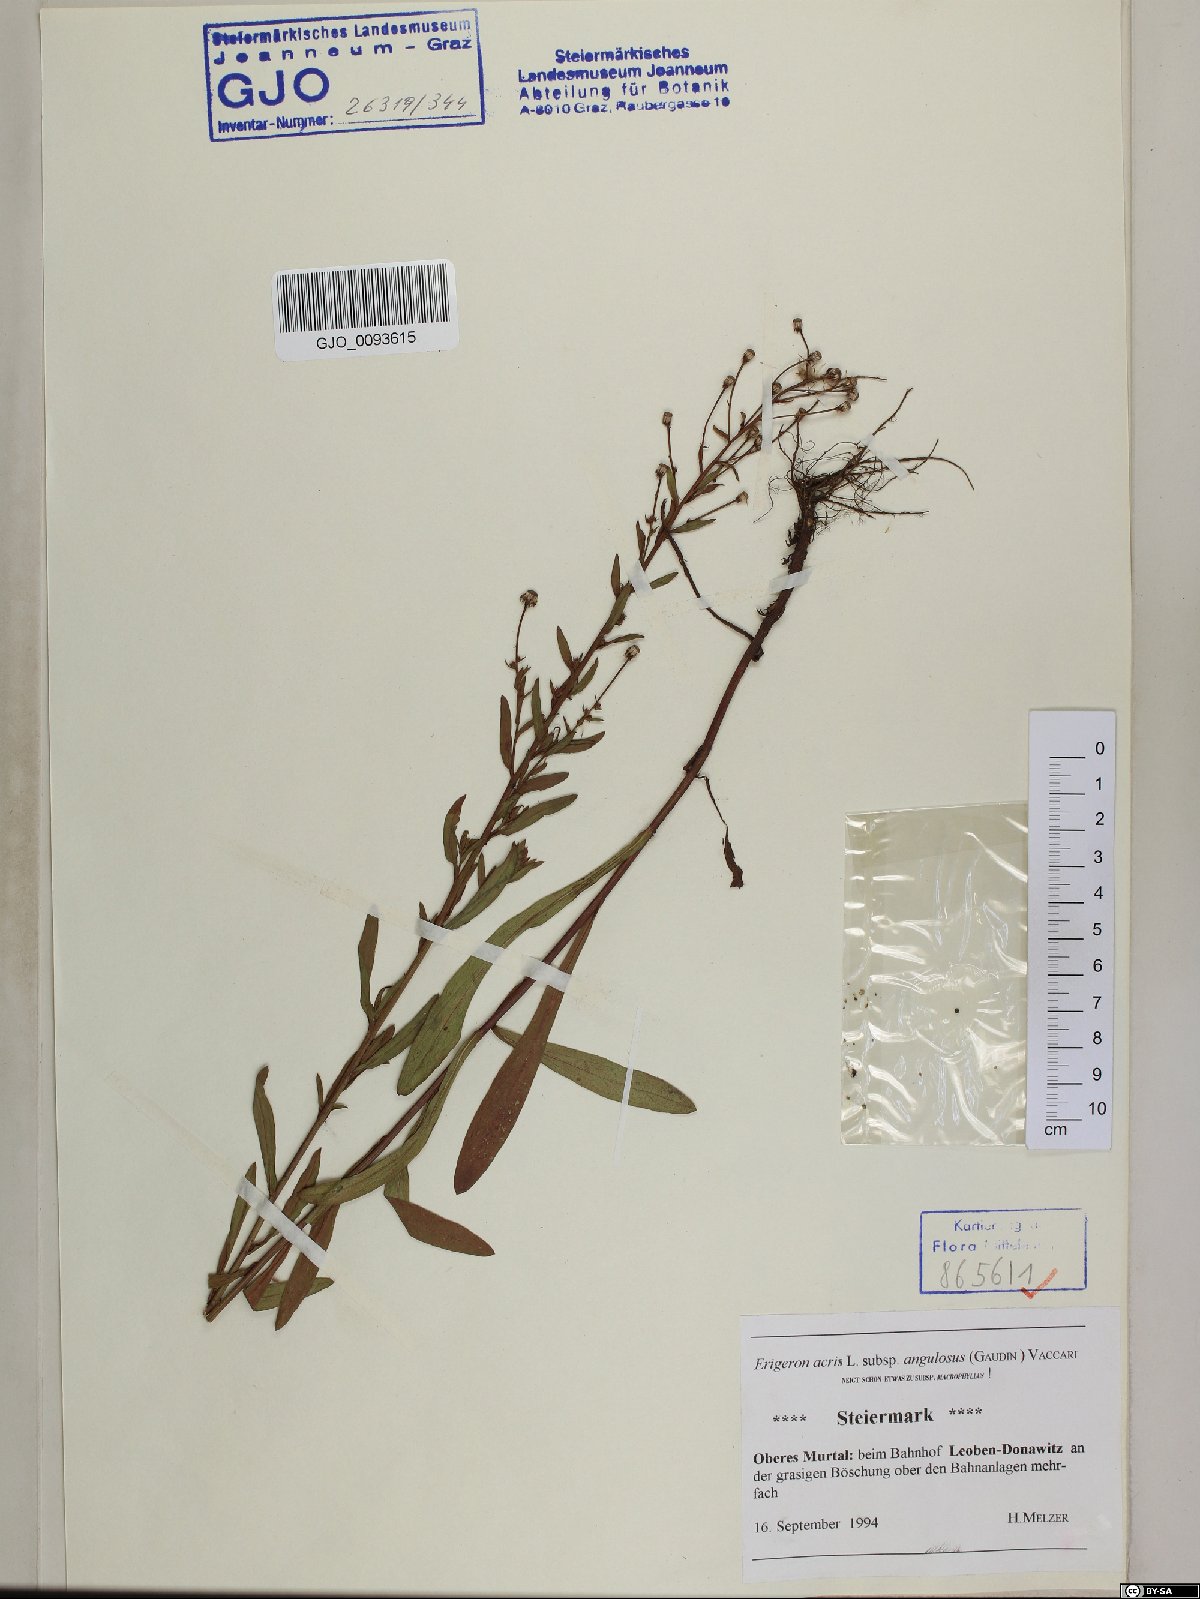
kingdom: Plantae
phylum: Tracheophyta
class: Magnoliopsida
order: Asterales
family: Asteraceae
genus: Erigeron
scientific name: Erigeron angulosus
